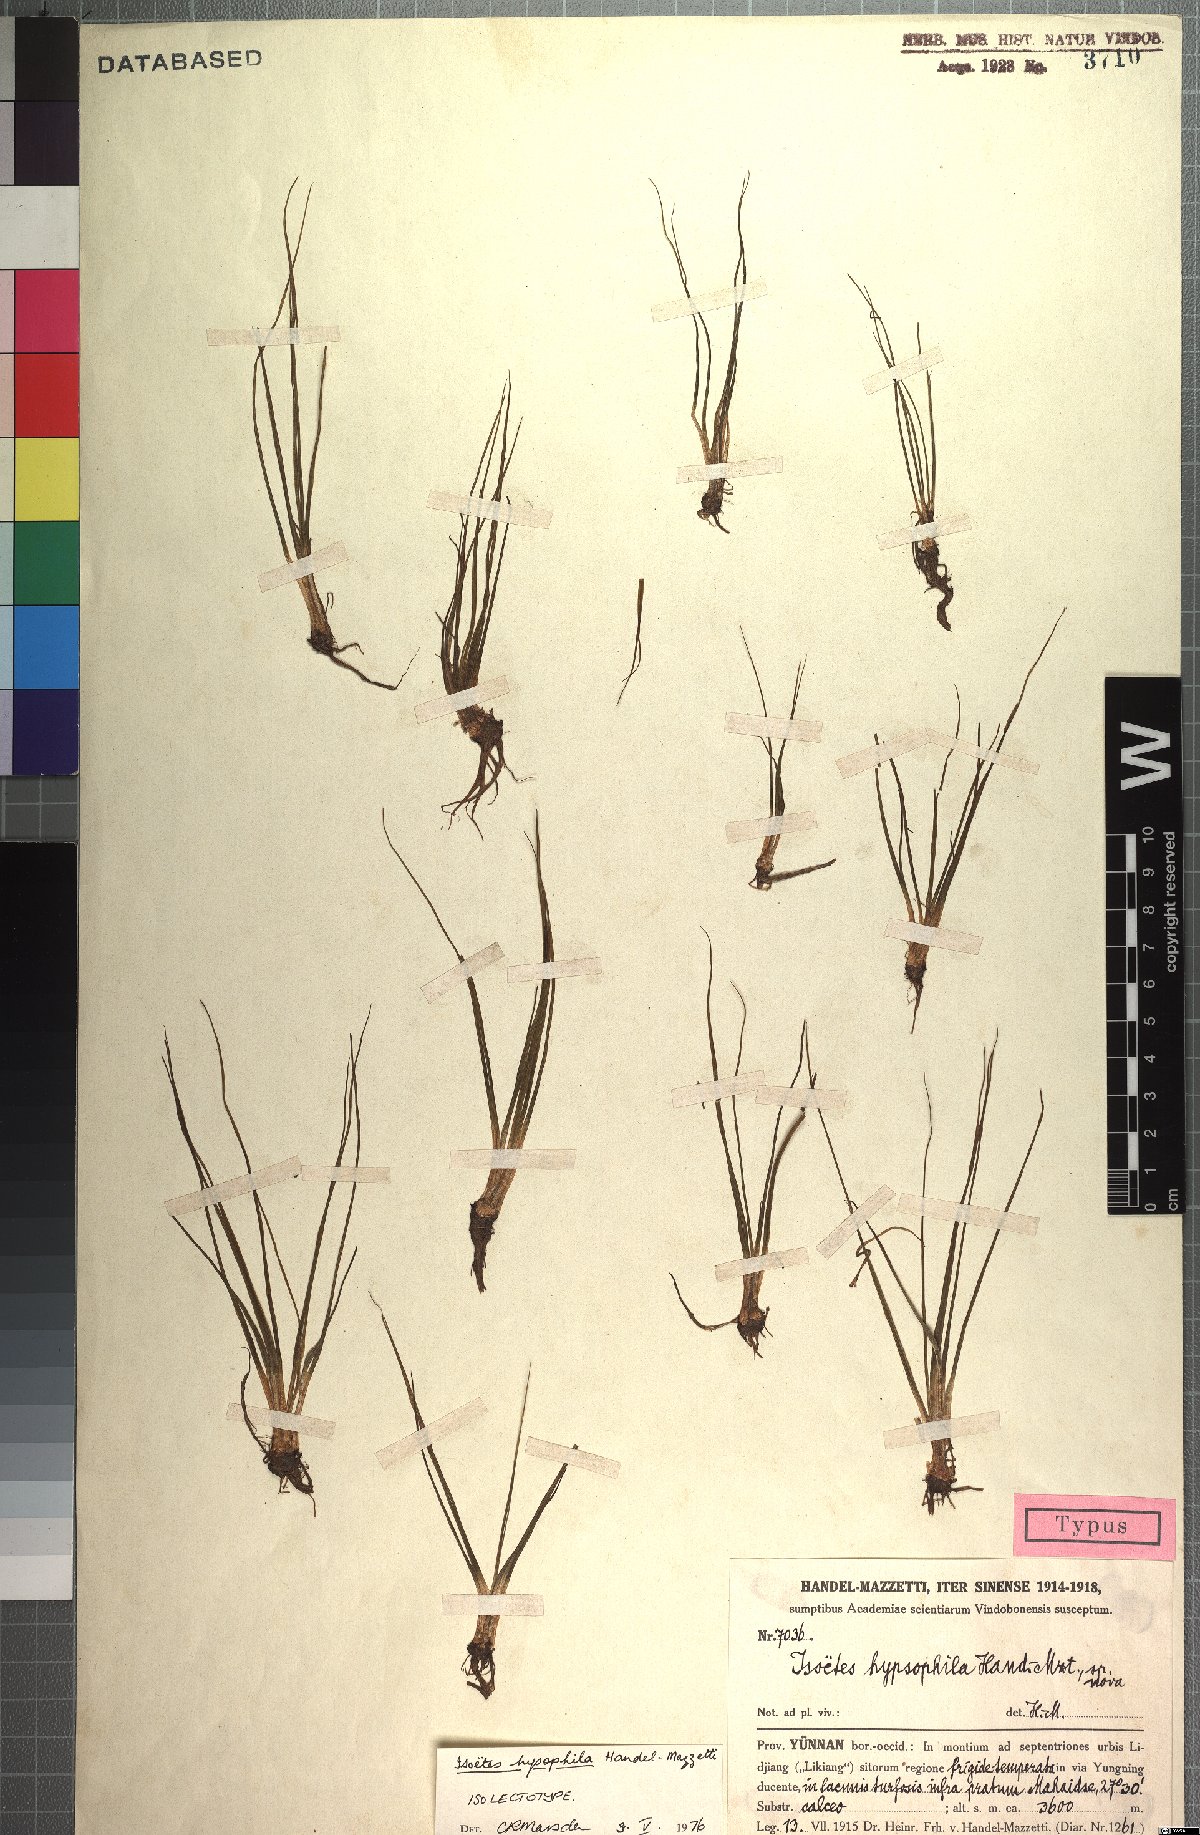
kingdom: Plantae
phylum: Tracheophyta
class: Lycopodiopsida
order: Isoetales
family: Isoetaceae
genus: Isoetes
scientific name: Isoetes hypsophila
